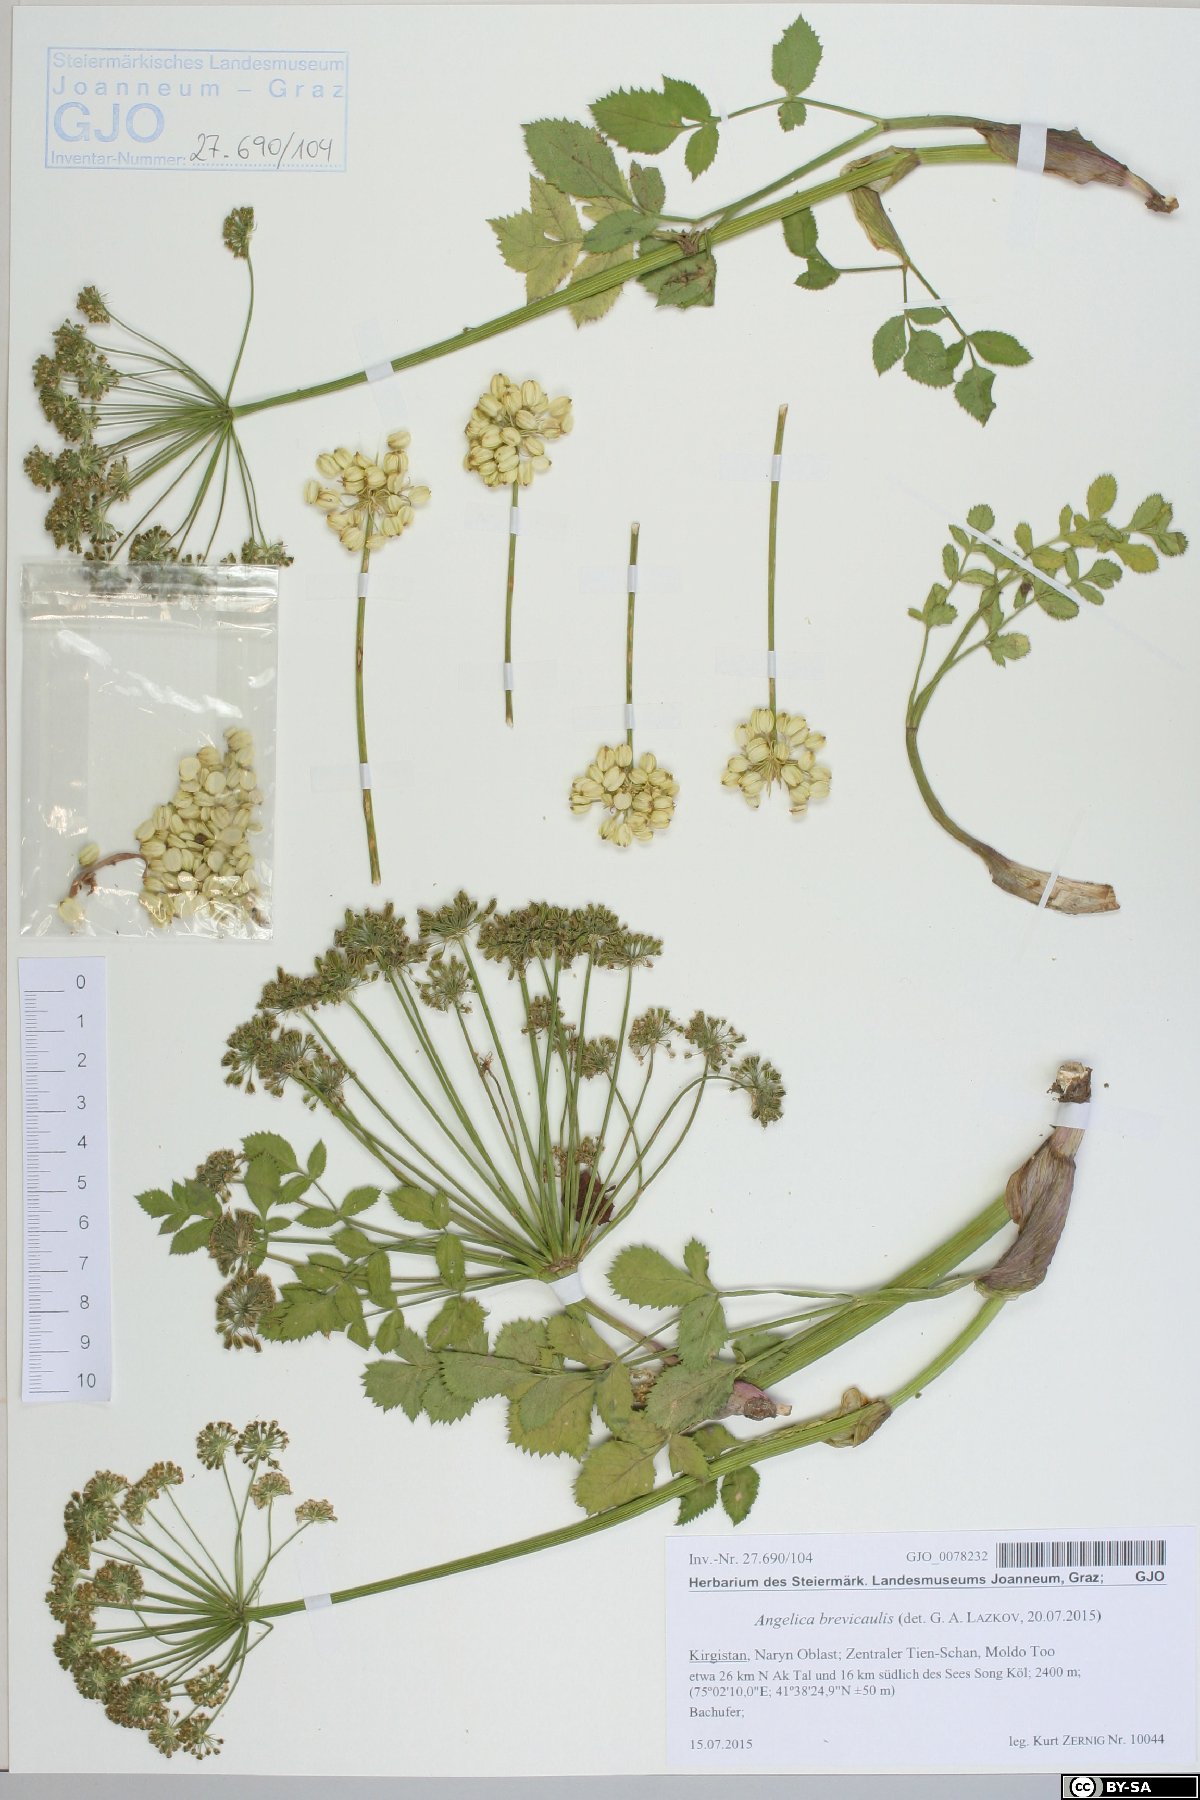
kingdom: Plantae
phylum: Tracheophyta
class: Magnoliopsida
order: Apiales
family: Apiaceae
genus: Angelica
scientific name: Angelica brevicaulis
